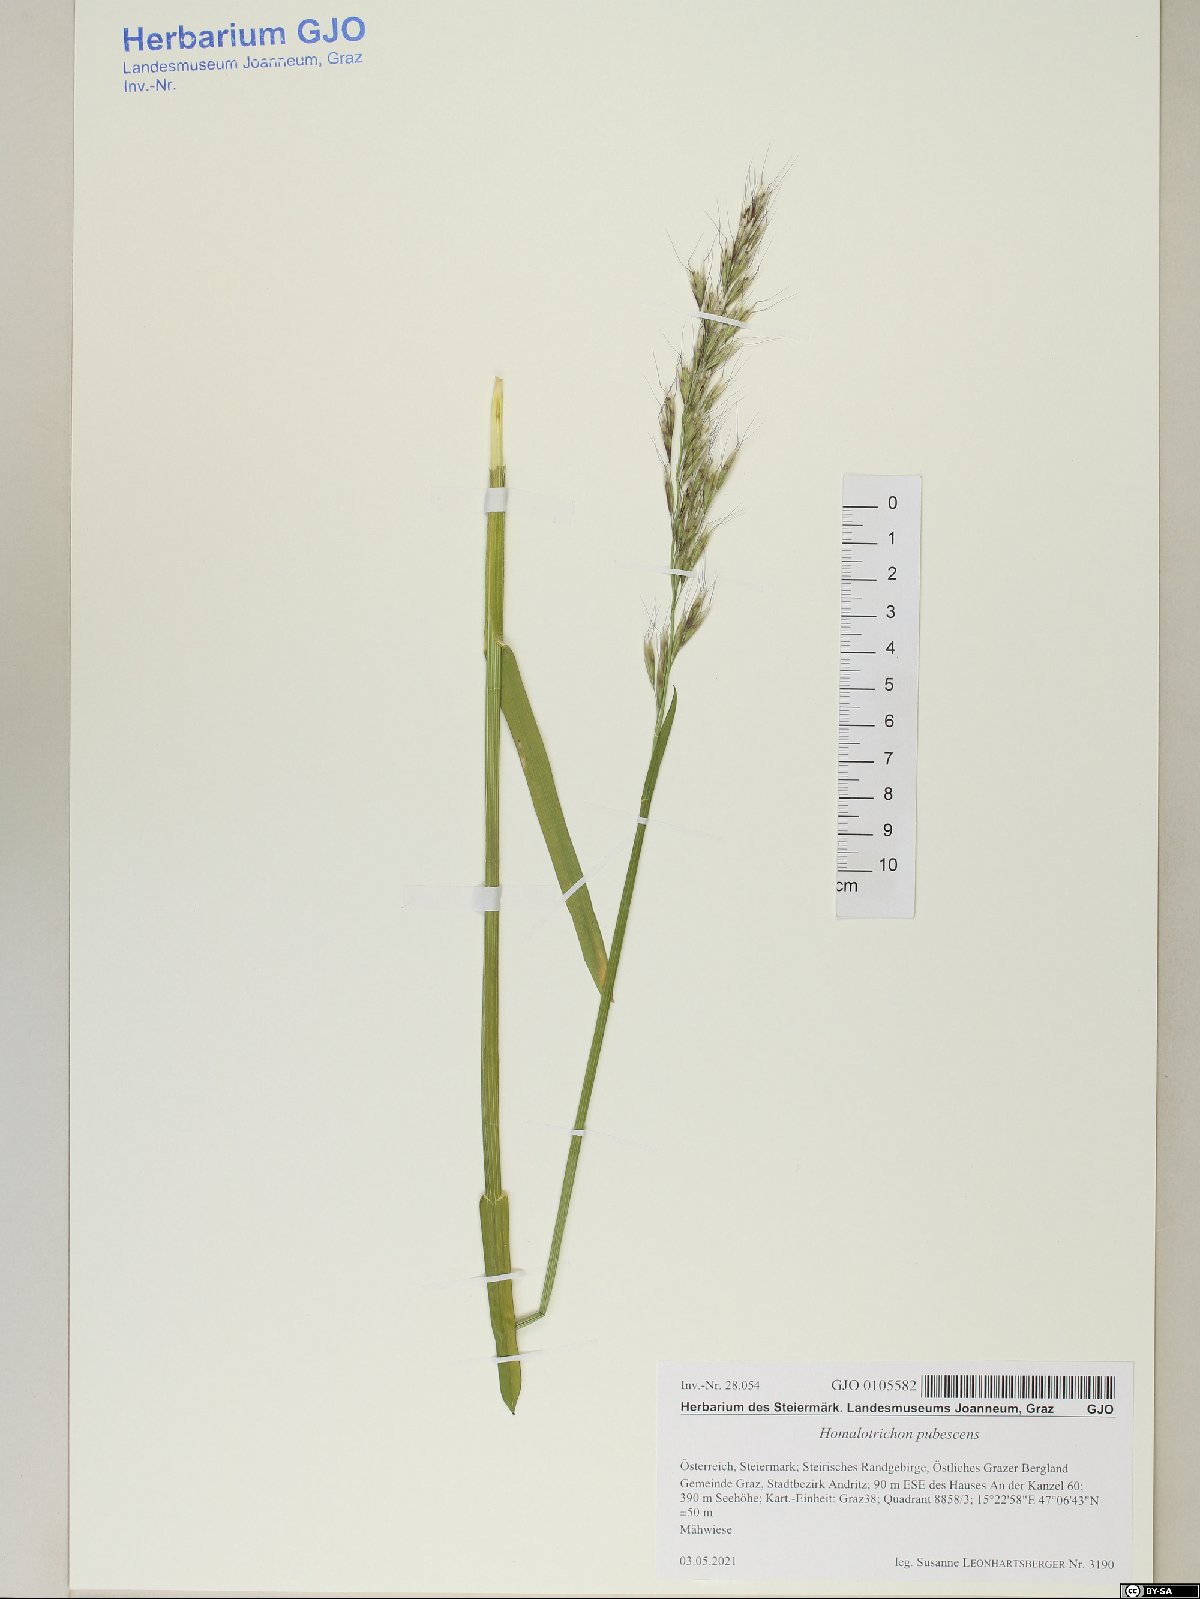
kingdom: Plantae
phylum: Tracheophyta
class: Liliopsida
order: Poales
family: Poaceae
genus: Avenula
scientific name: Avenula pubescens
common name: Downy alpine oatgrass
